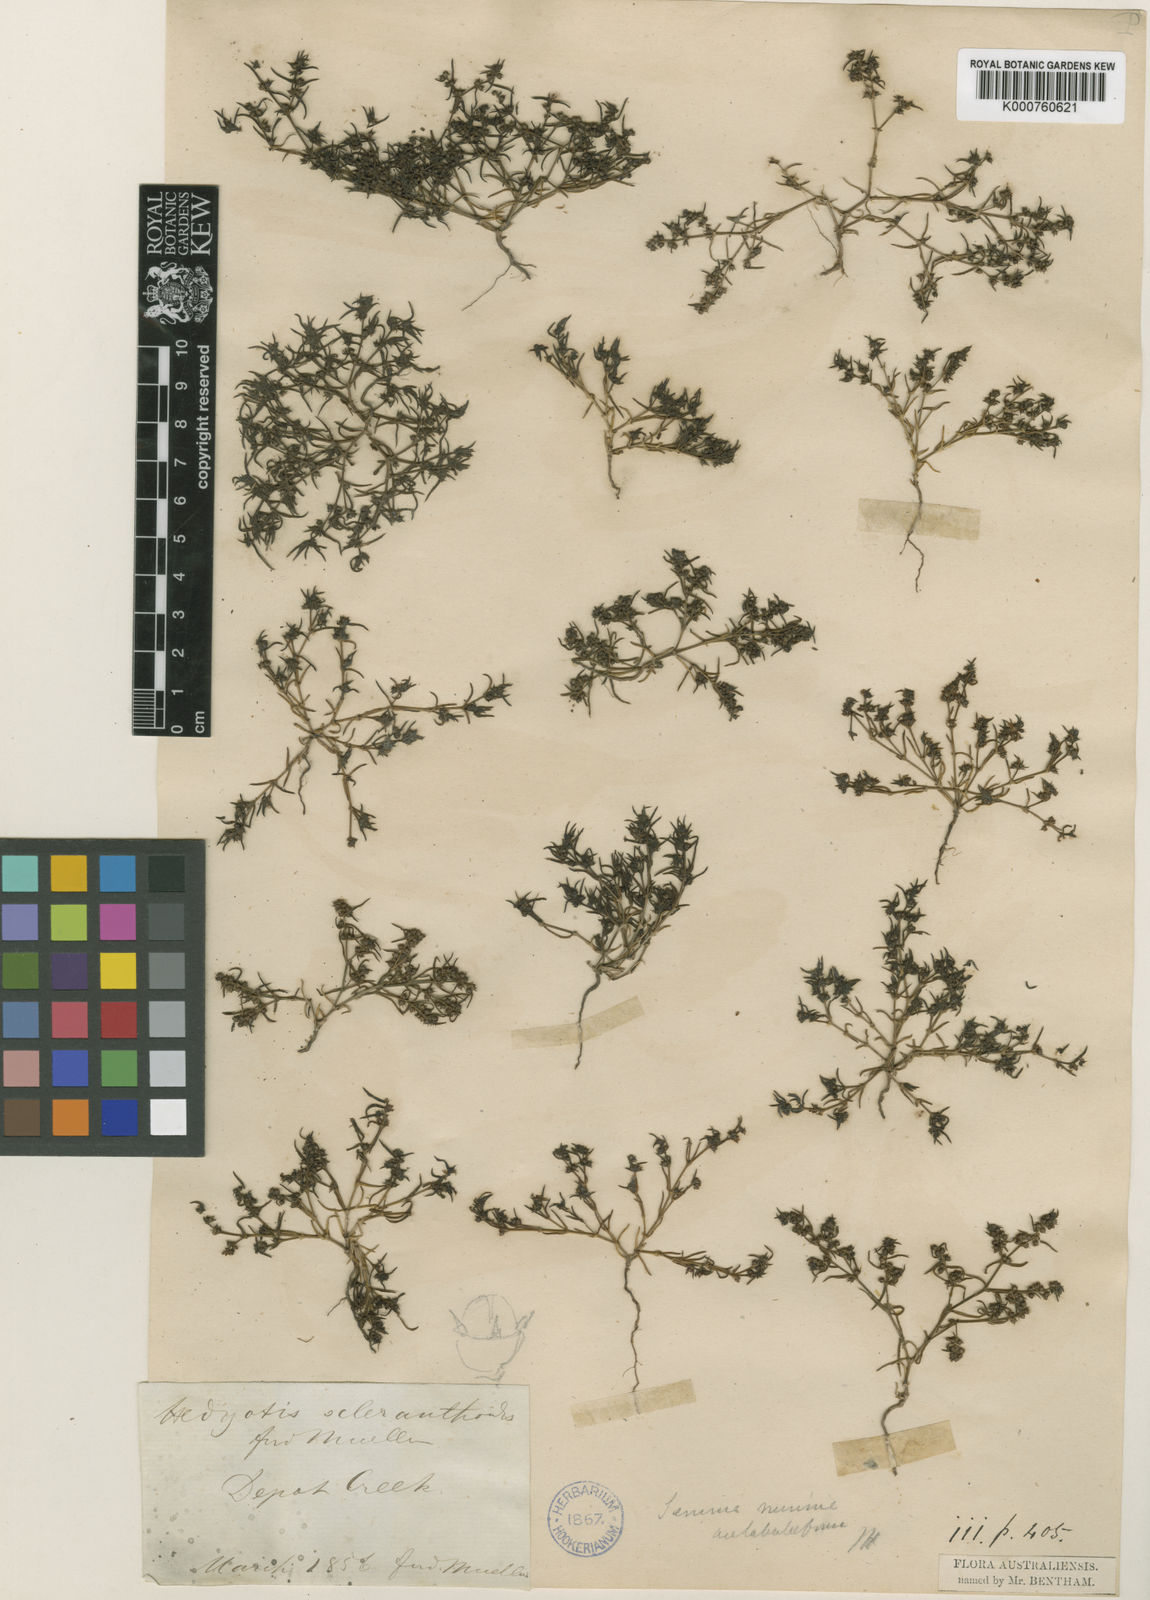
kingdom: Plantae
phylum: Tracheophyta
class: Magnoliopsida
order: Gentianales
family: Rubiaceae
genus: Scleromitrion
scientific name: Scleromitrion scleranthoides
